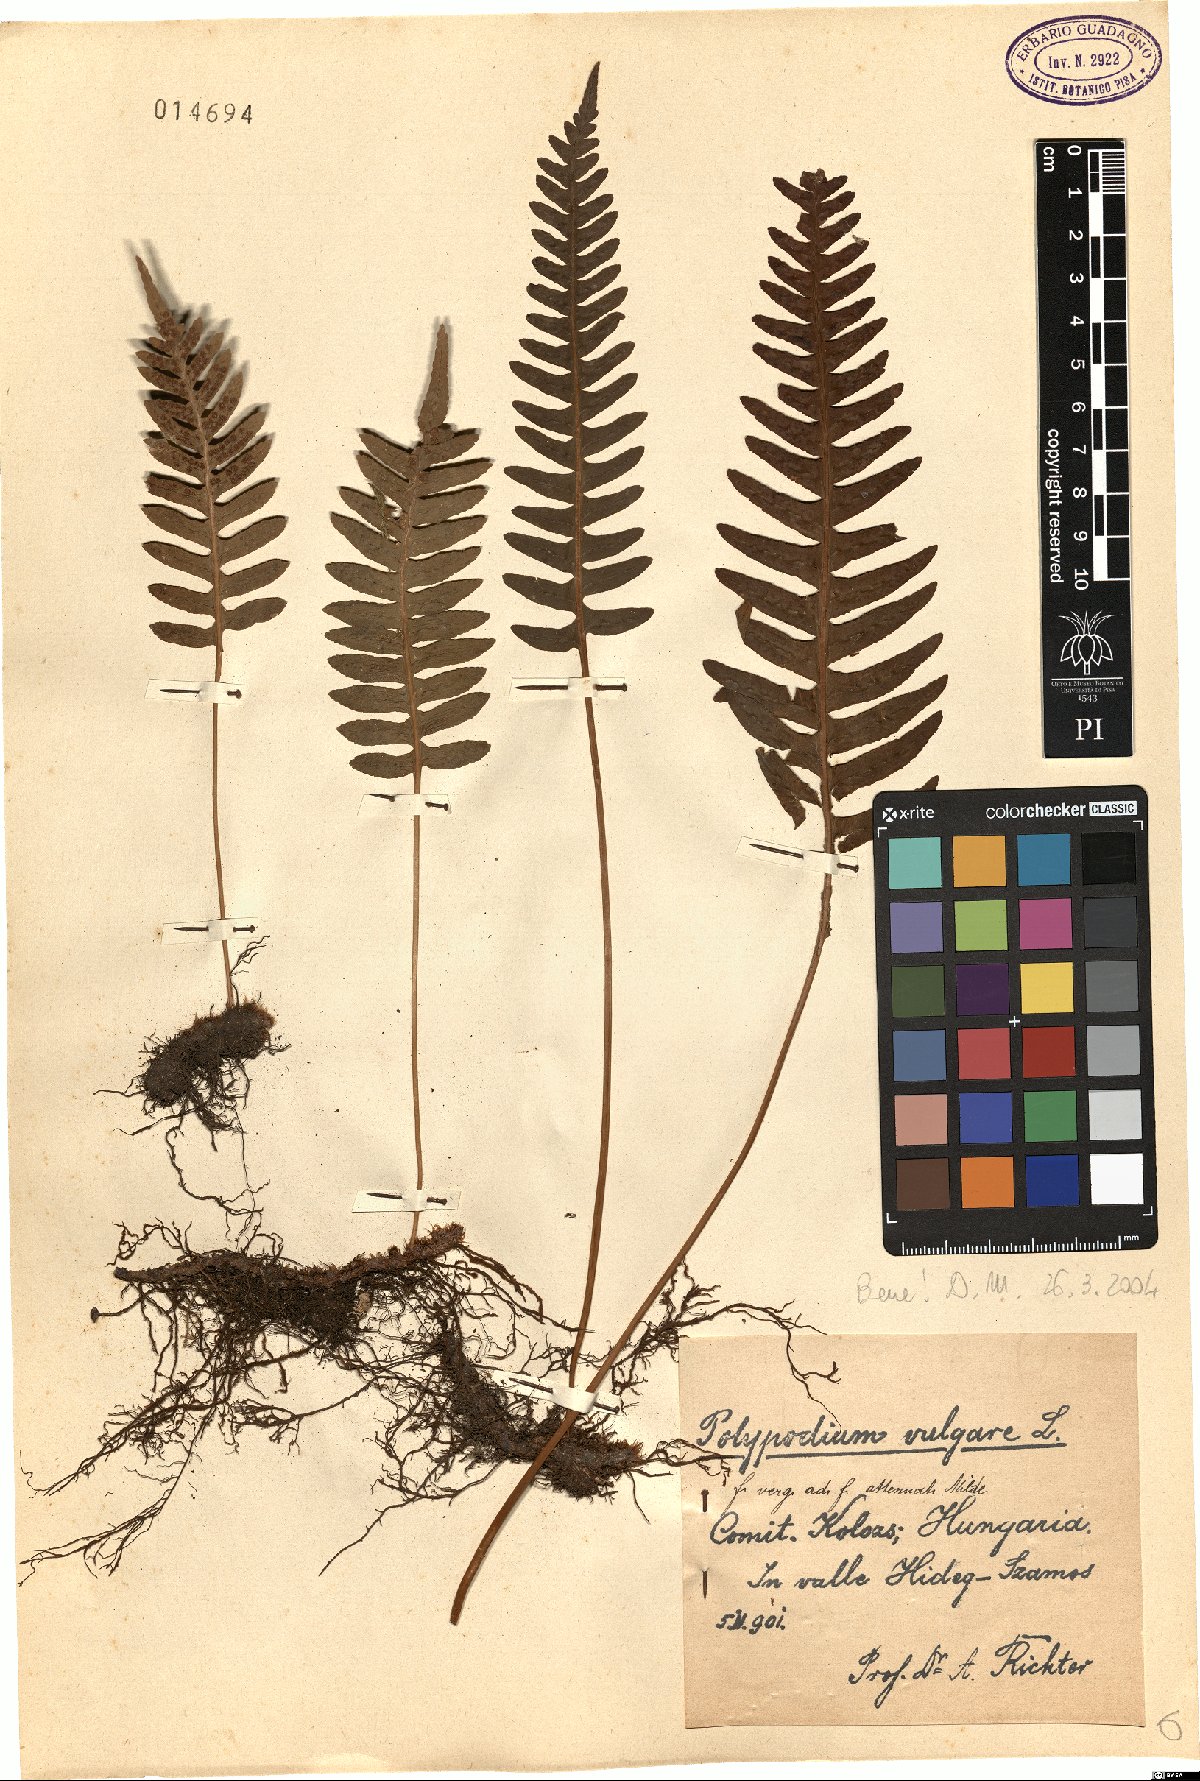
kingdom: Plantae
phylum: Tracheophyta
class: Polypodiopsida
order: Polypodiales
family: Polypodiaceae
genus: Polypodium
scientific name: Polypodium vulgare
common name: Common polypody
